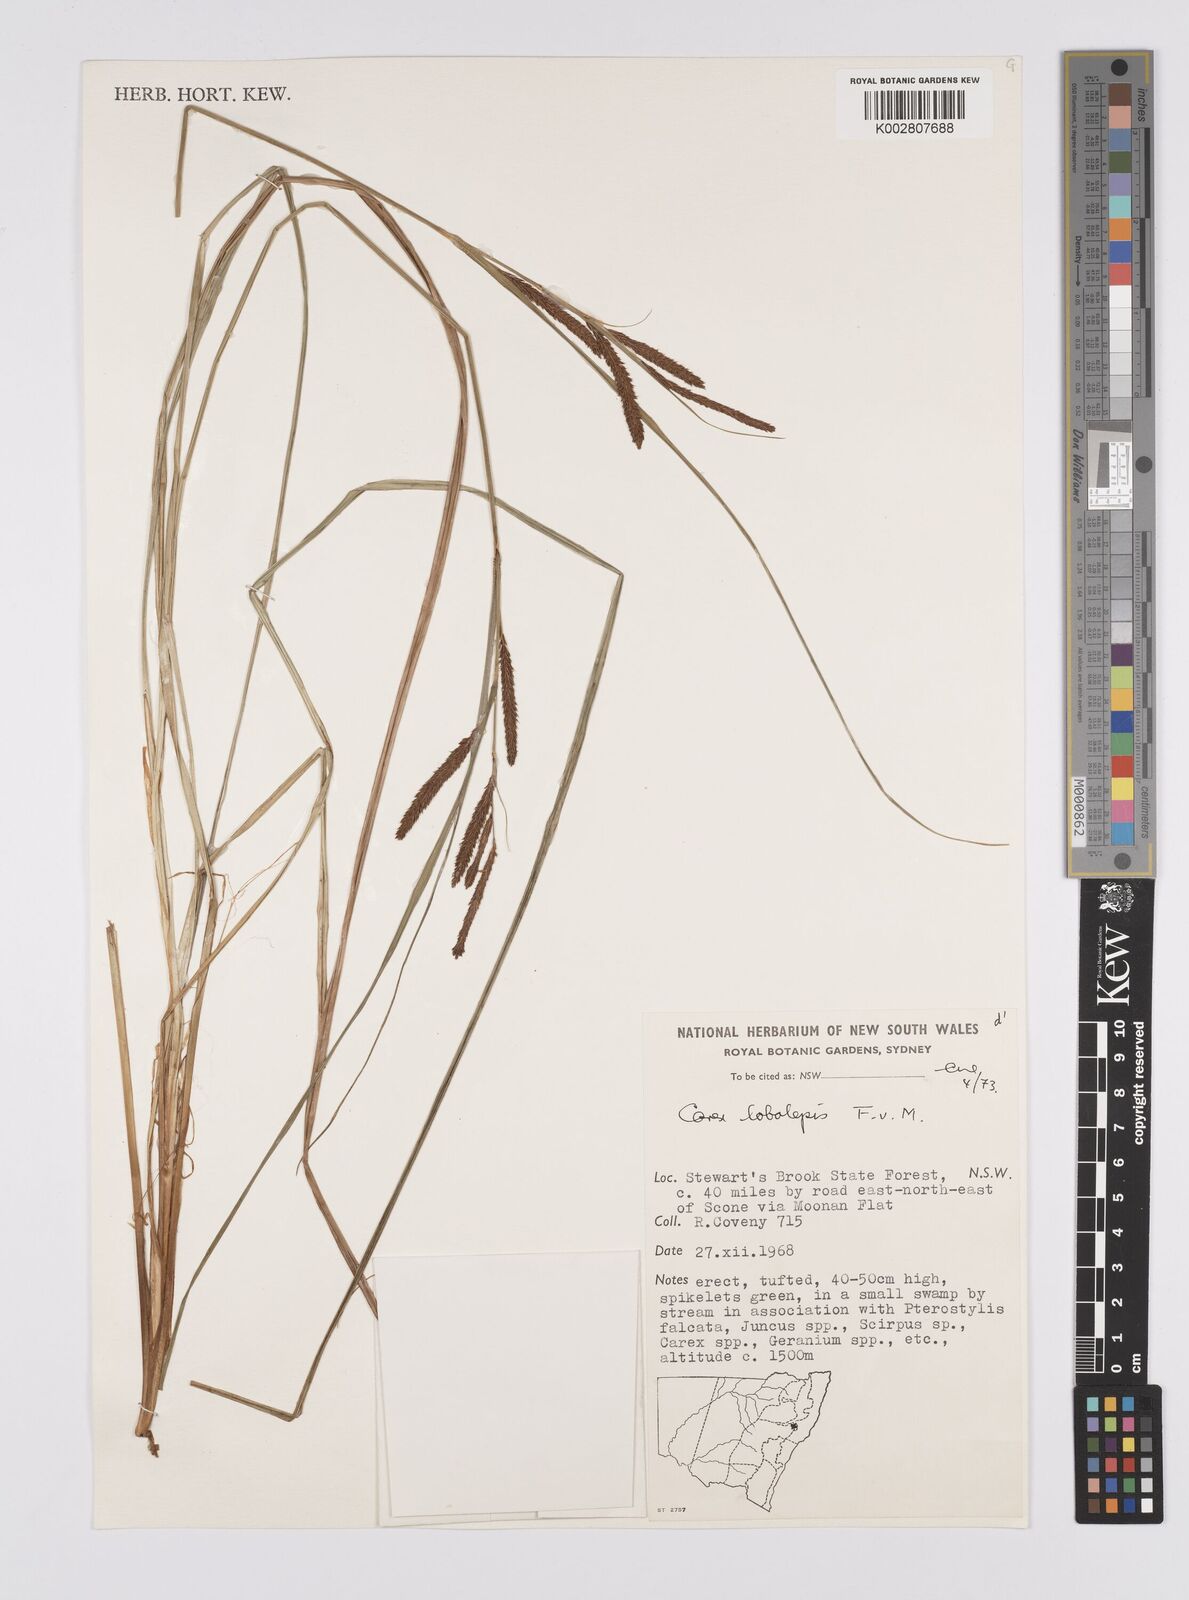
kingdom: Plantae
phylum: Tracheophyta
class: Liliopsida
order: Poales
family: Cyperaceae
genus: Carex
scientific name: Carex lobolepis
